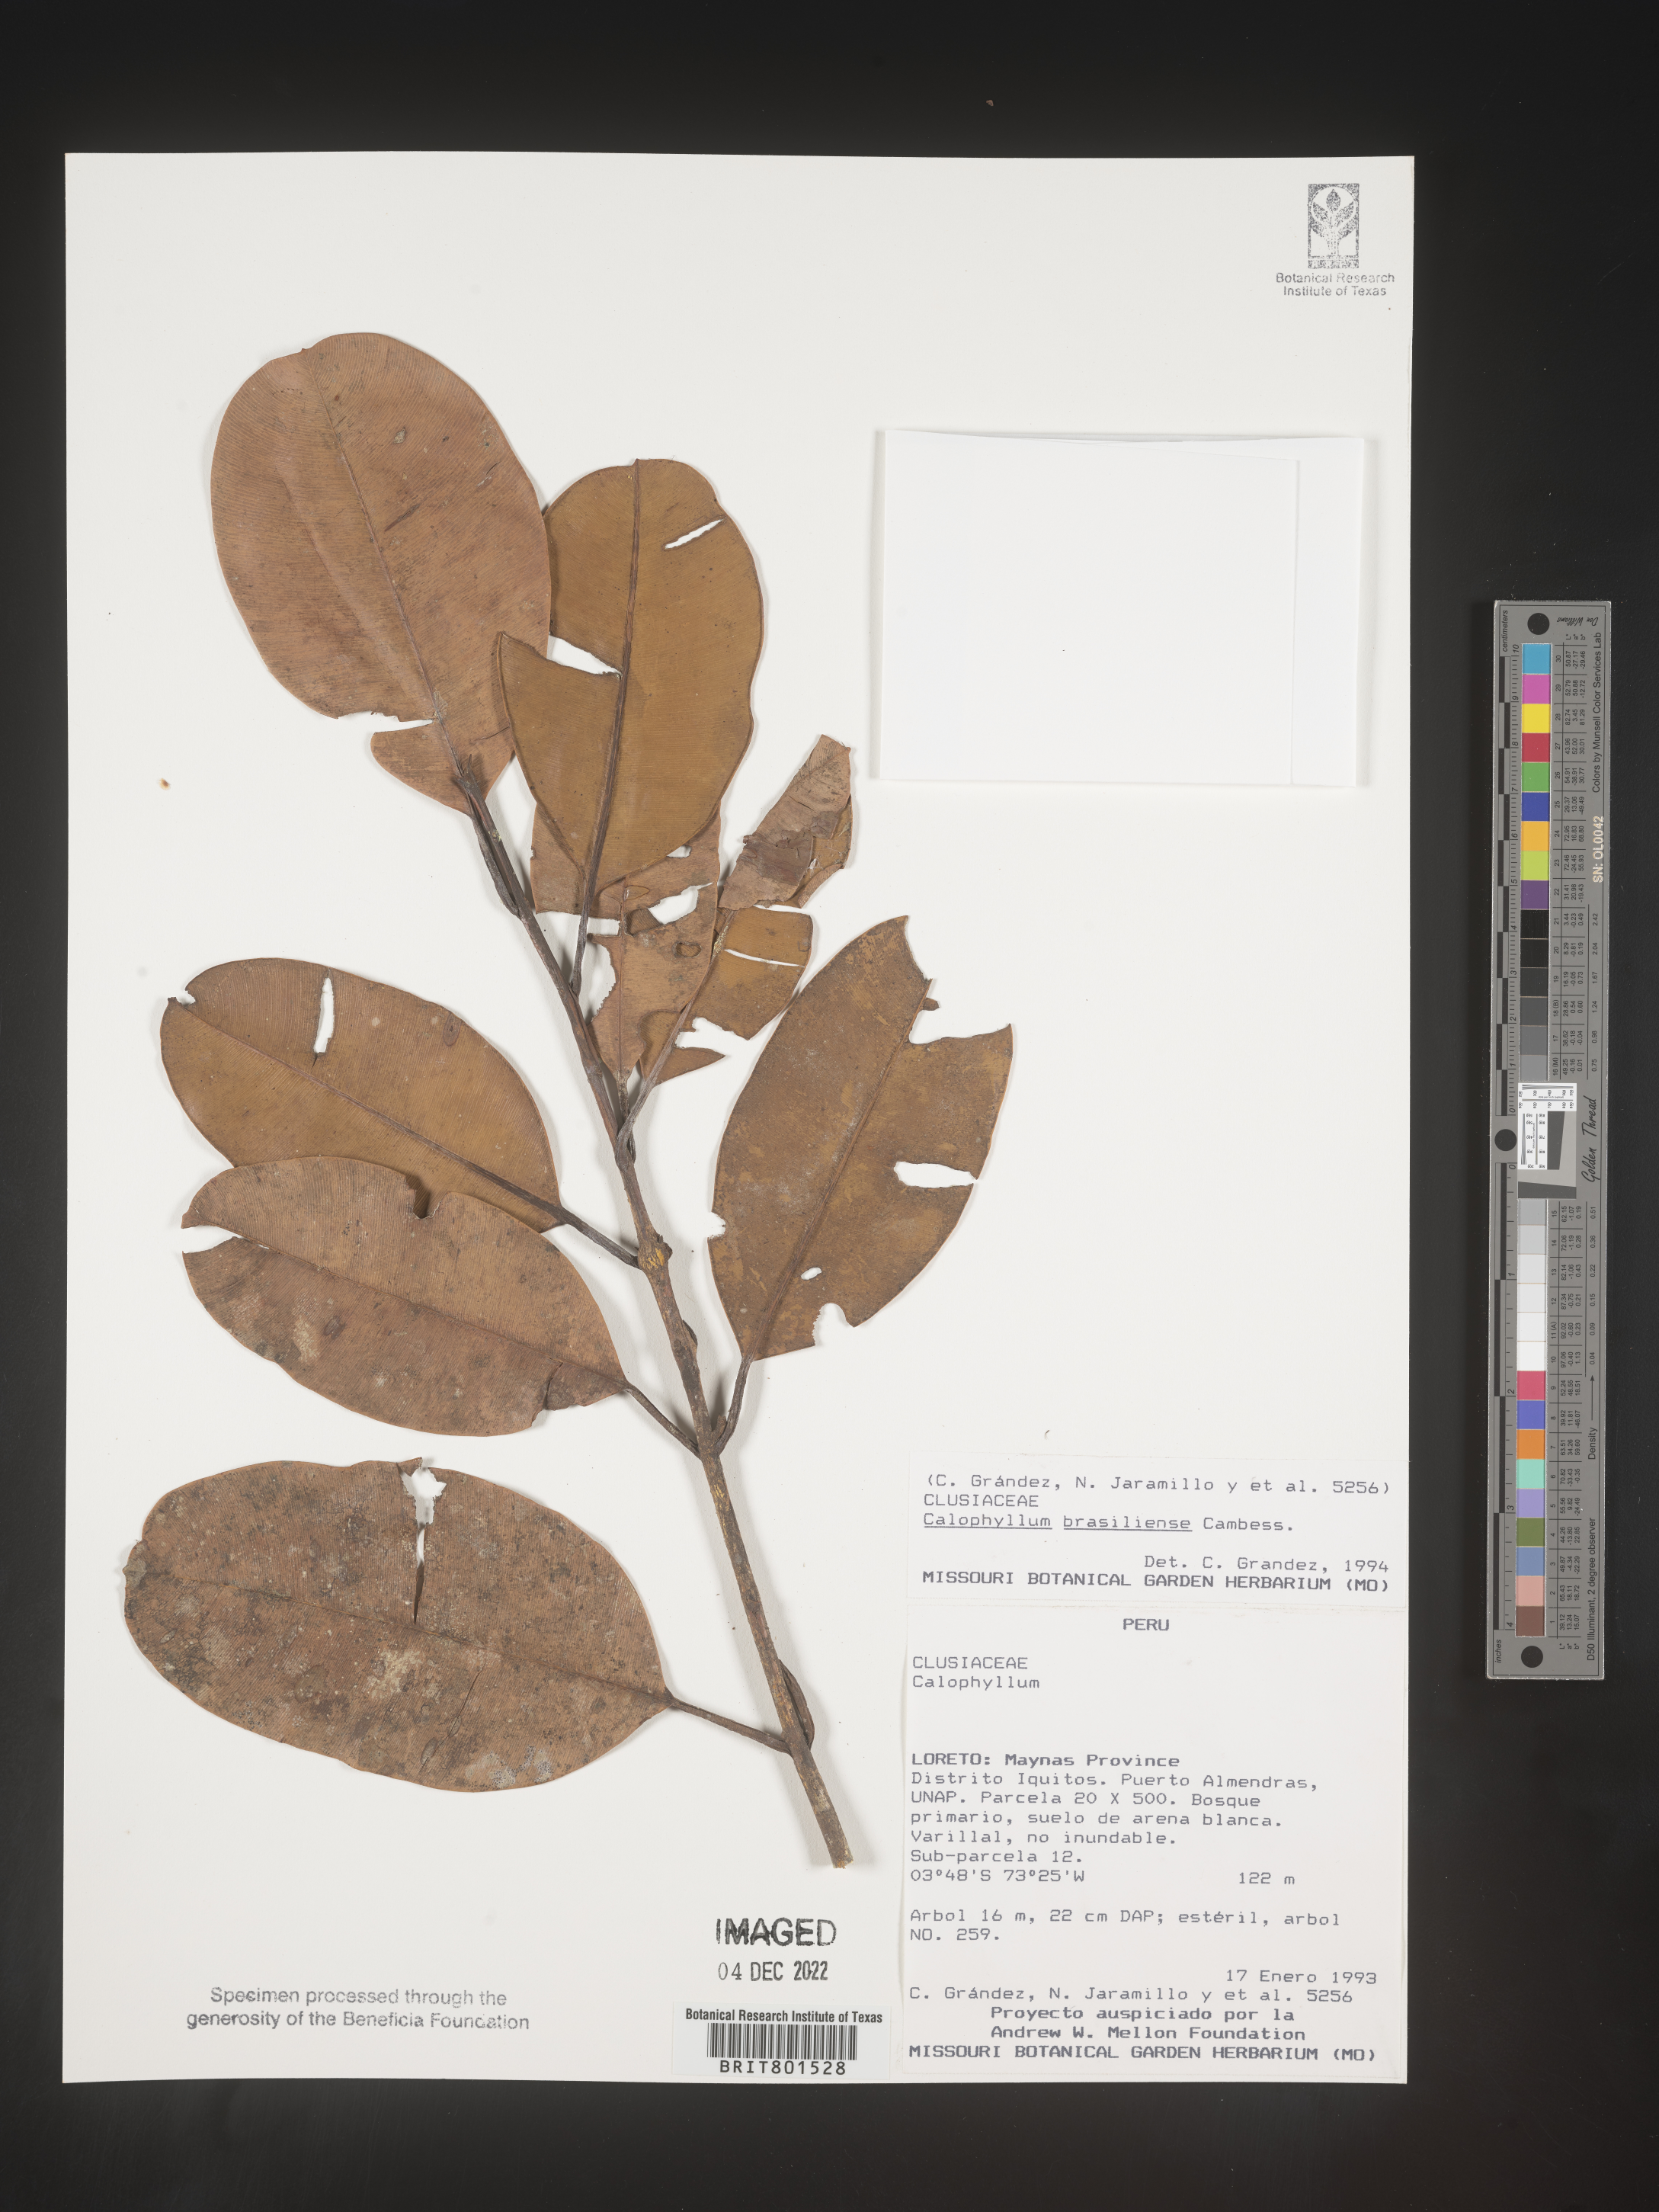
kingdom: Plantae
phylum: Tracheophyta
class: Magnoliopsida
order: Malpighiales
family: Calophyllaceae
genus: Calophyllum
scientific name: Calophyllum brasiliense
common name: Santa maria
